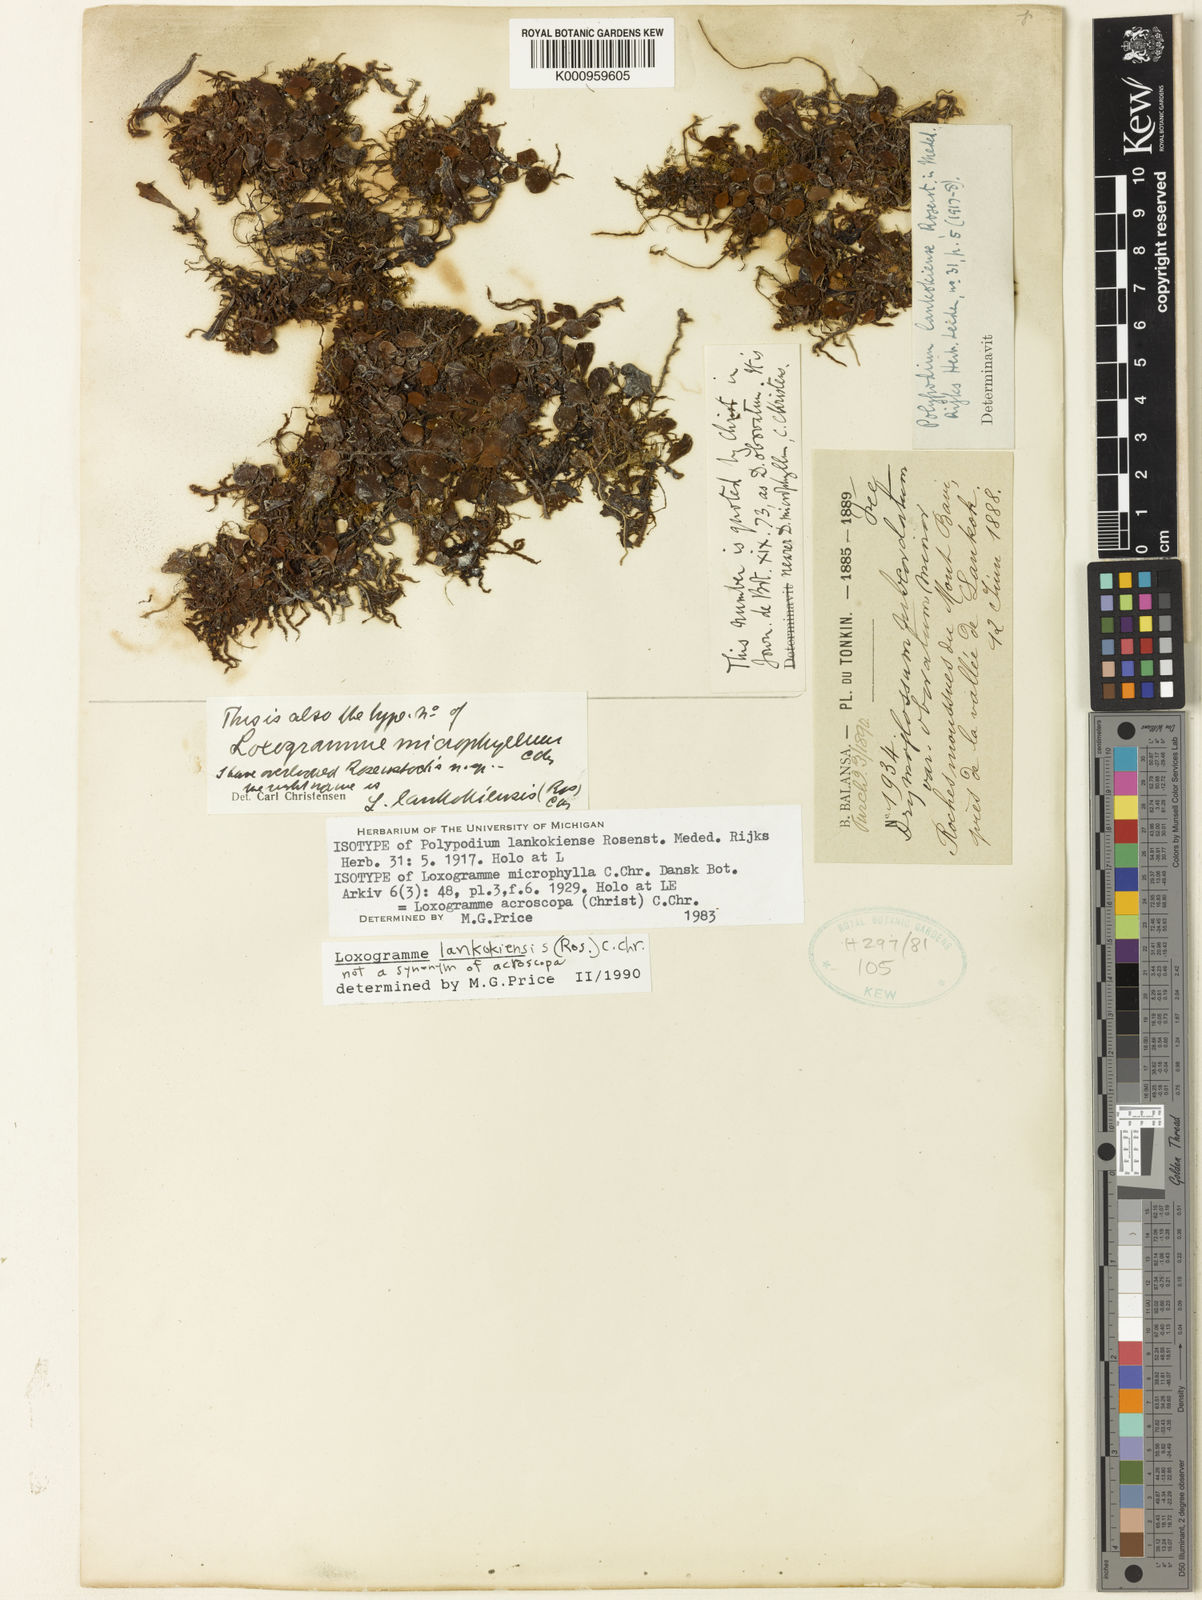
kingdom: Plantae
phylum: Tracheophyta
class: Polypodiopsida
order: Polypodiales
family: Polypodiaceae
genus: Loxogramme
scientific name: Loxogramme acroscopa
